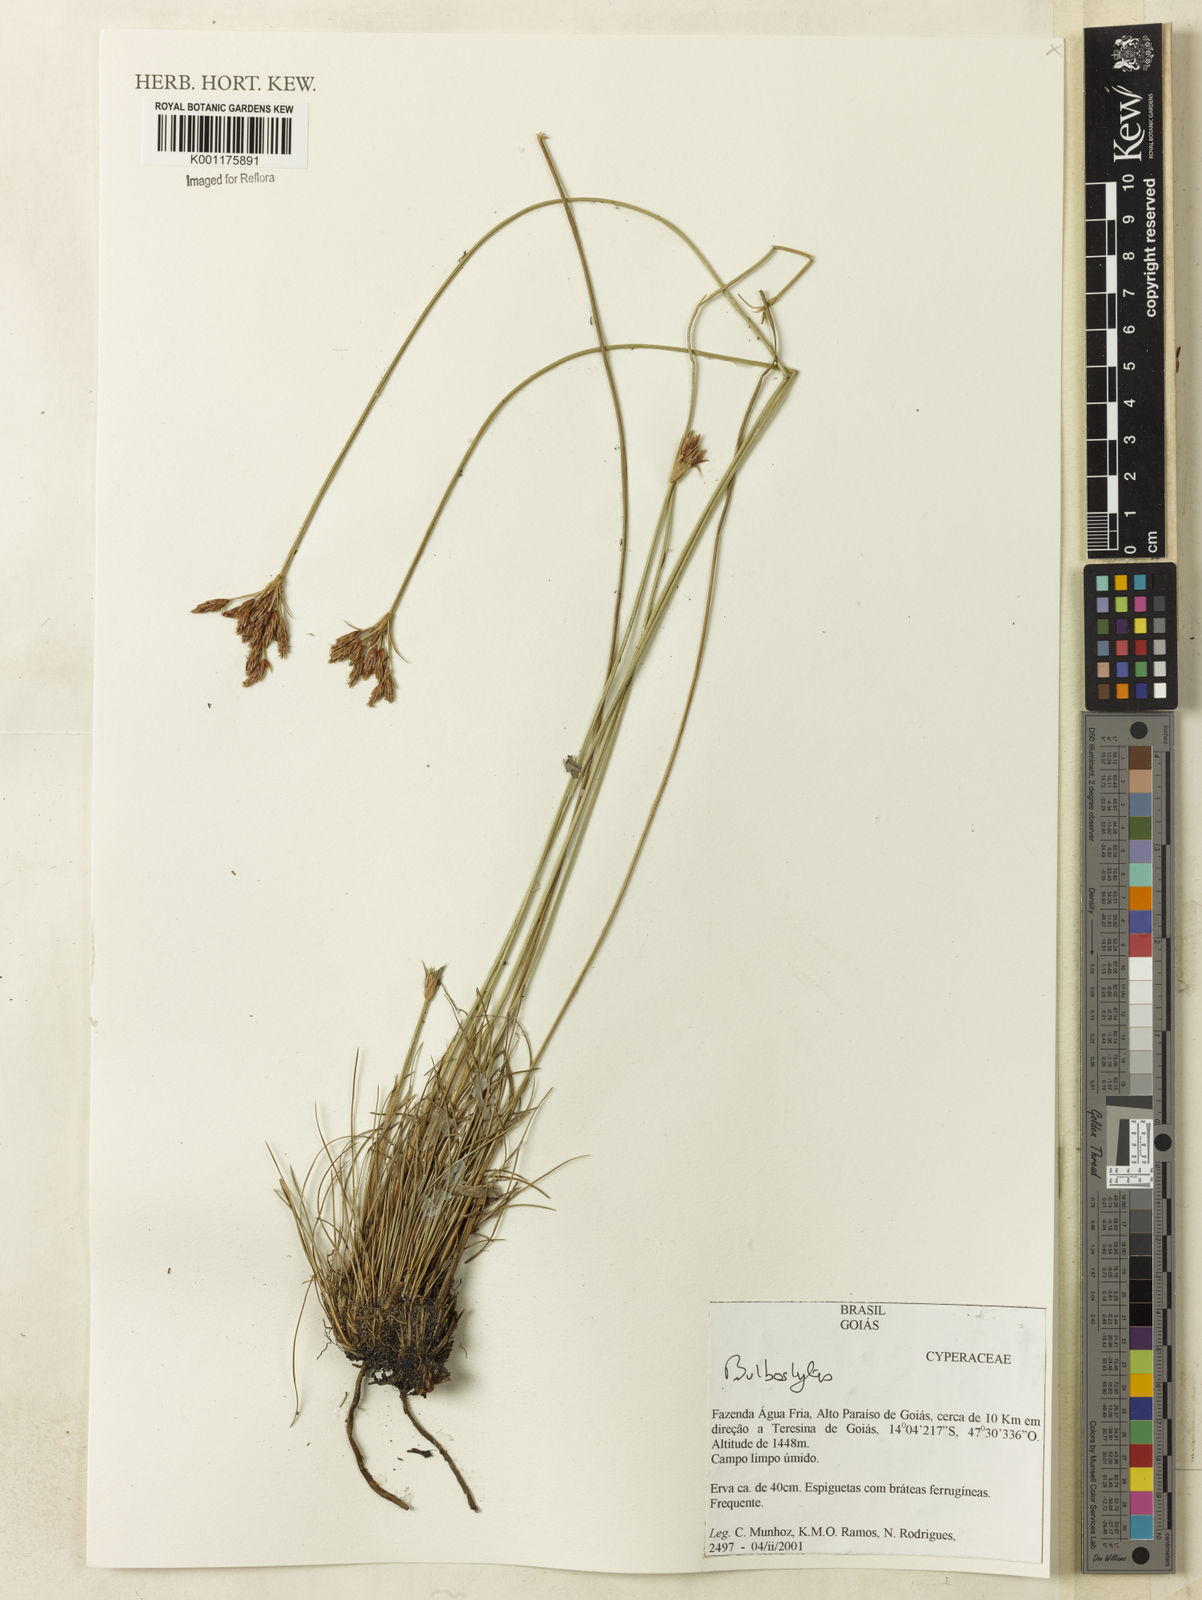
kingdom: Plantae
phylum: Tracheophyta
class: Liliopsida
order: Poales
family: Cyperaceae
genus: Bulbostylis
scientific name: Bulbostylis
